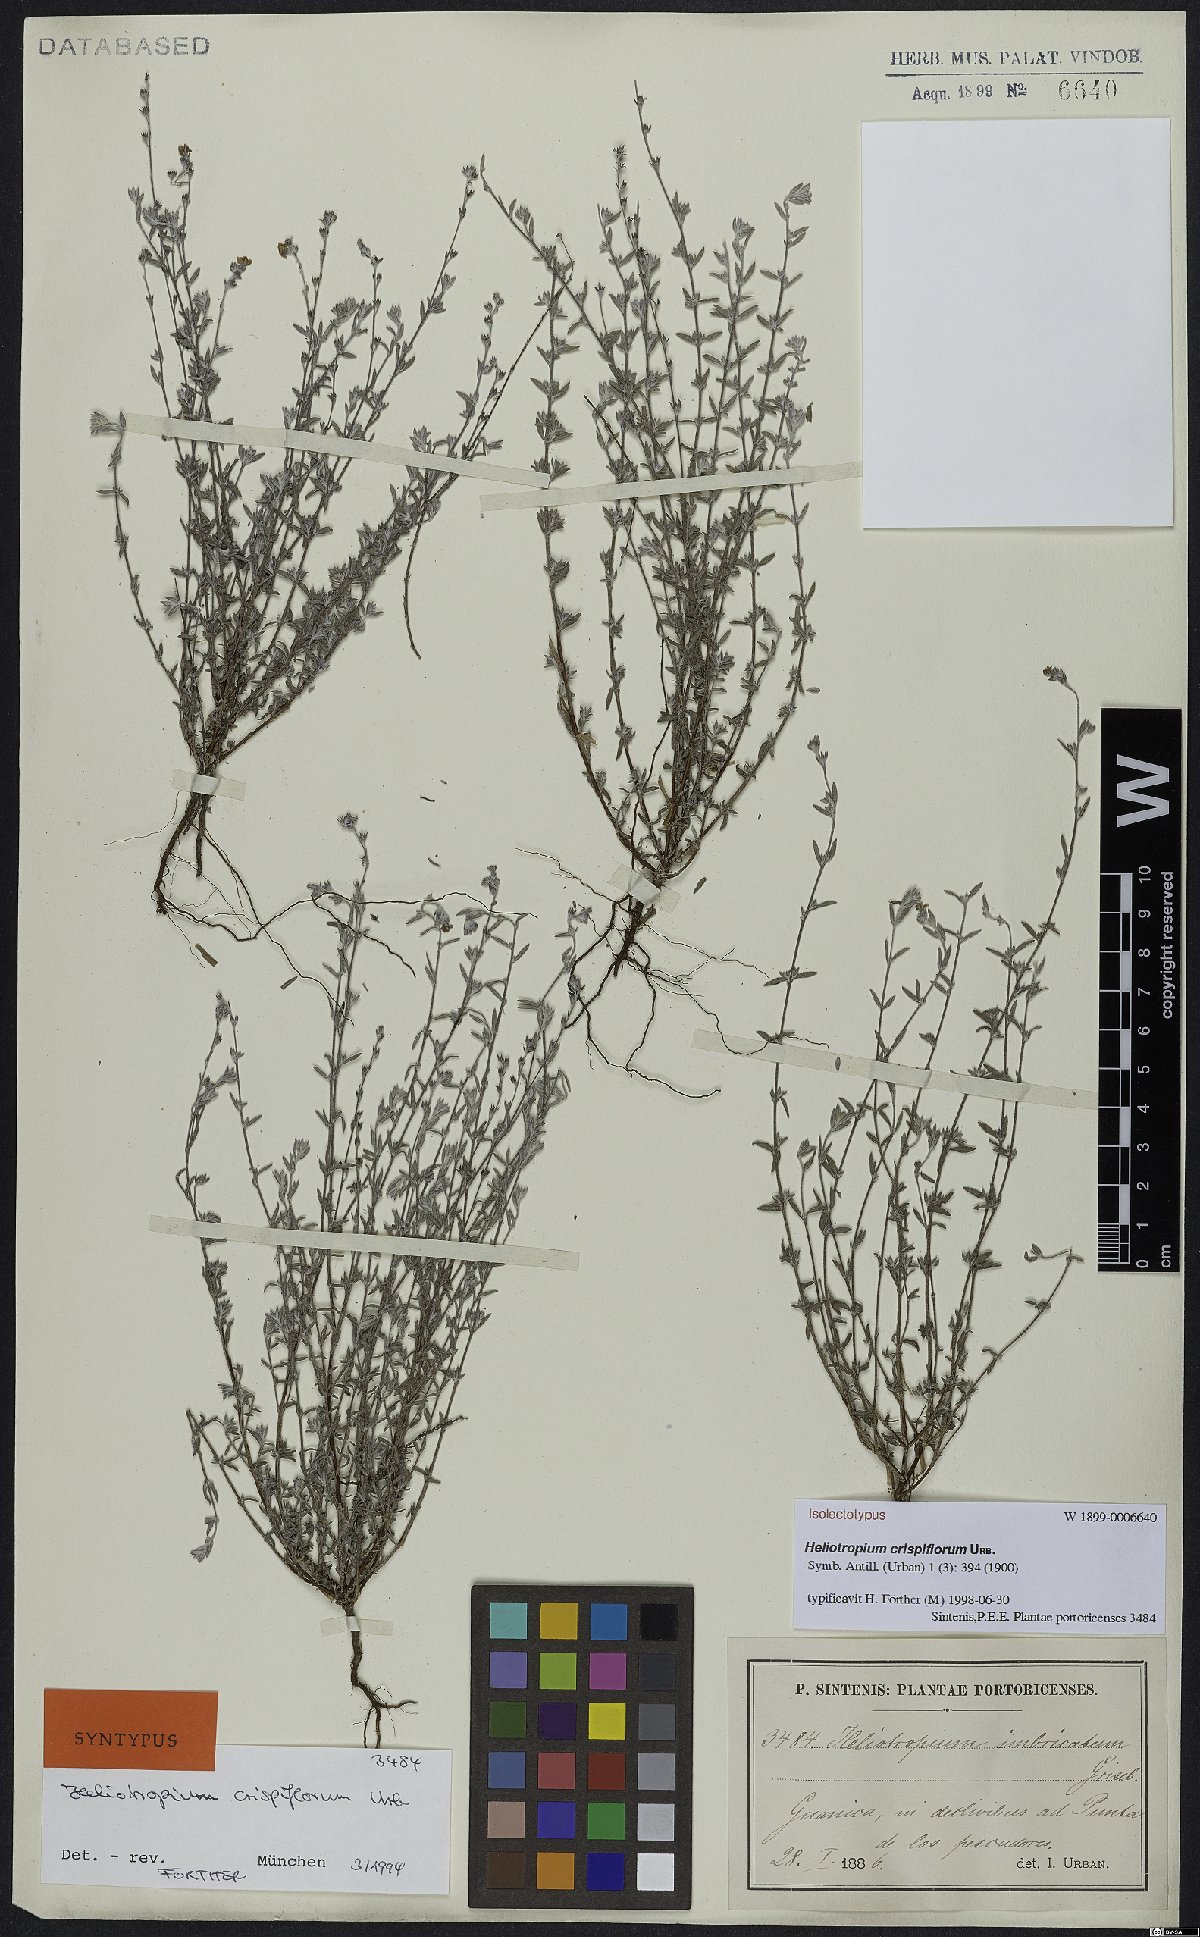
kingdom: Plantae
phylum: Tracheophyta
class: Magnoliopsida
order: Boraginales
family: Heliotropiaceae
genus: Euploca
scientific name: Euploca microphylla
